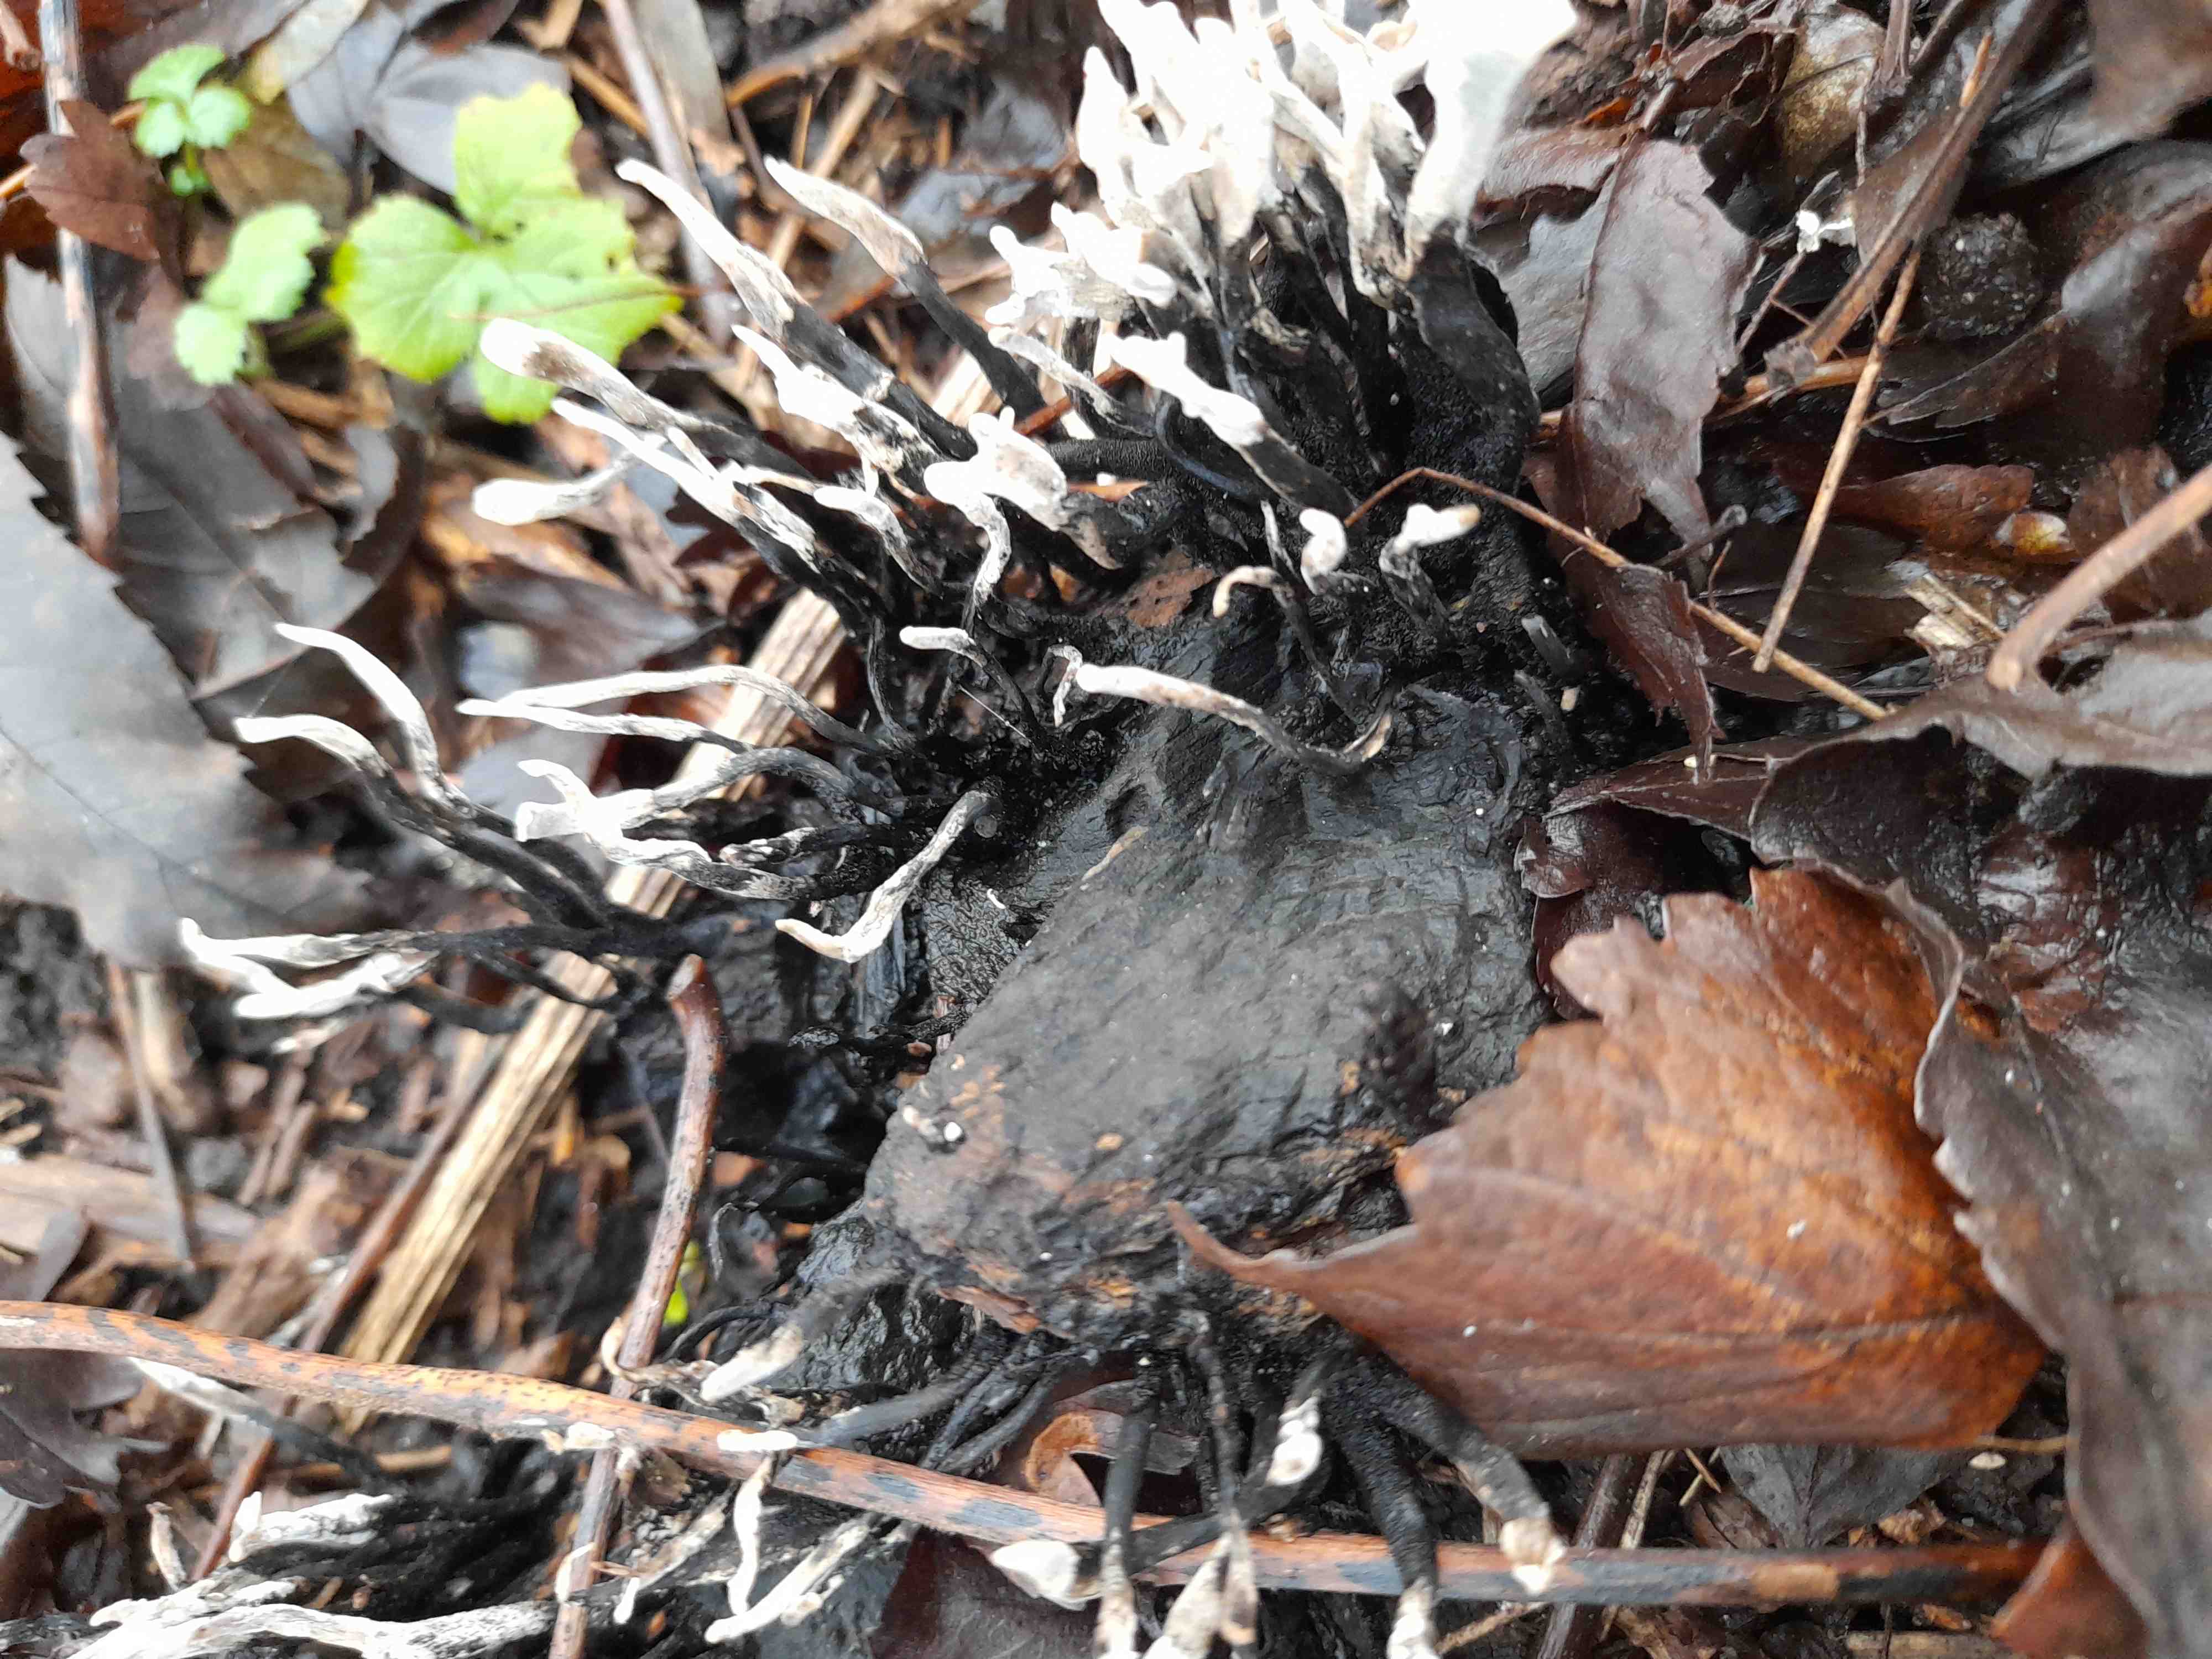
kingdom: Fungi
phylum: Ascomycota
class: Sordariomycetes
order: Xylariales
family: Xylariaceae
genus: Xylaria
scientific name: Xylaria hypoxylon
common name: grenet stødsvamp
